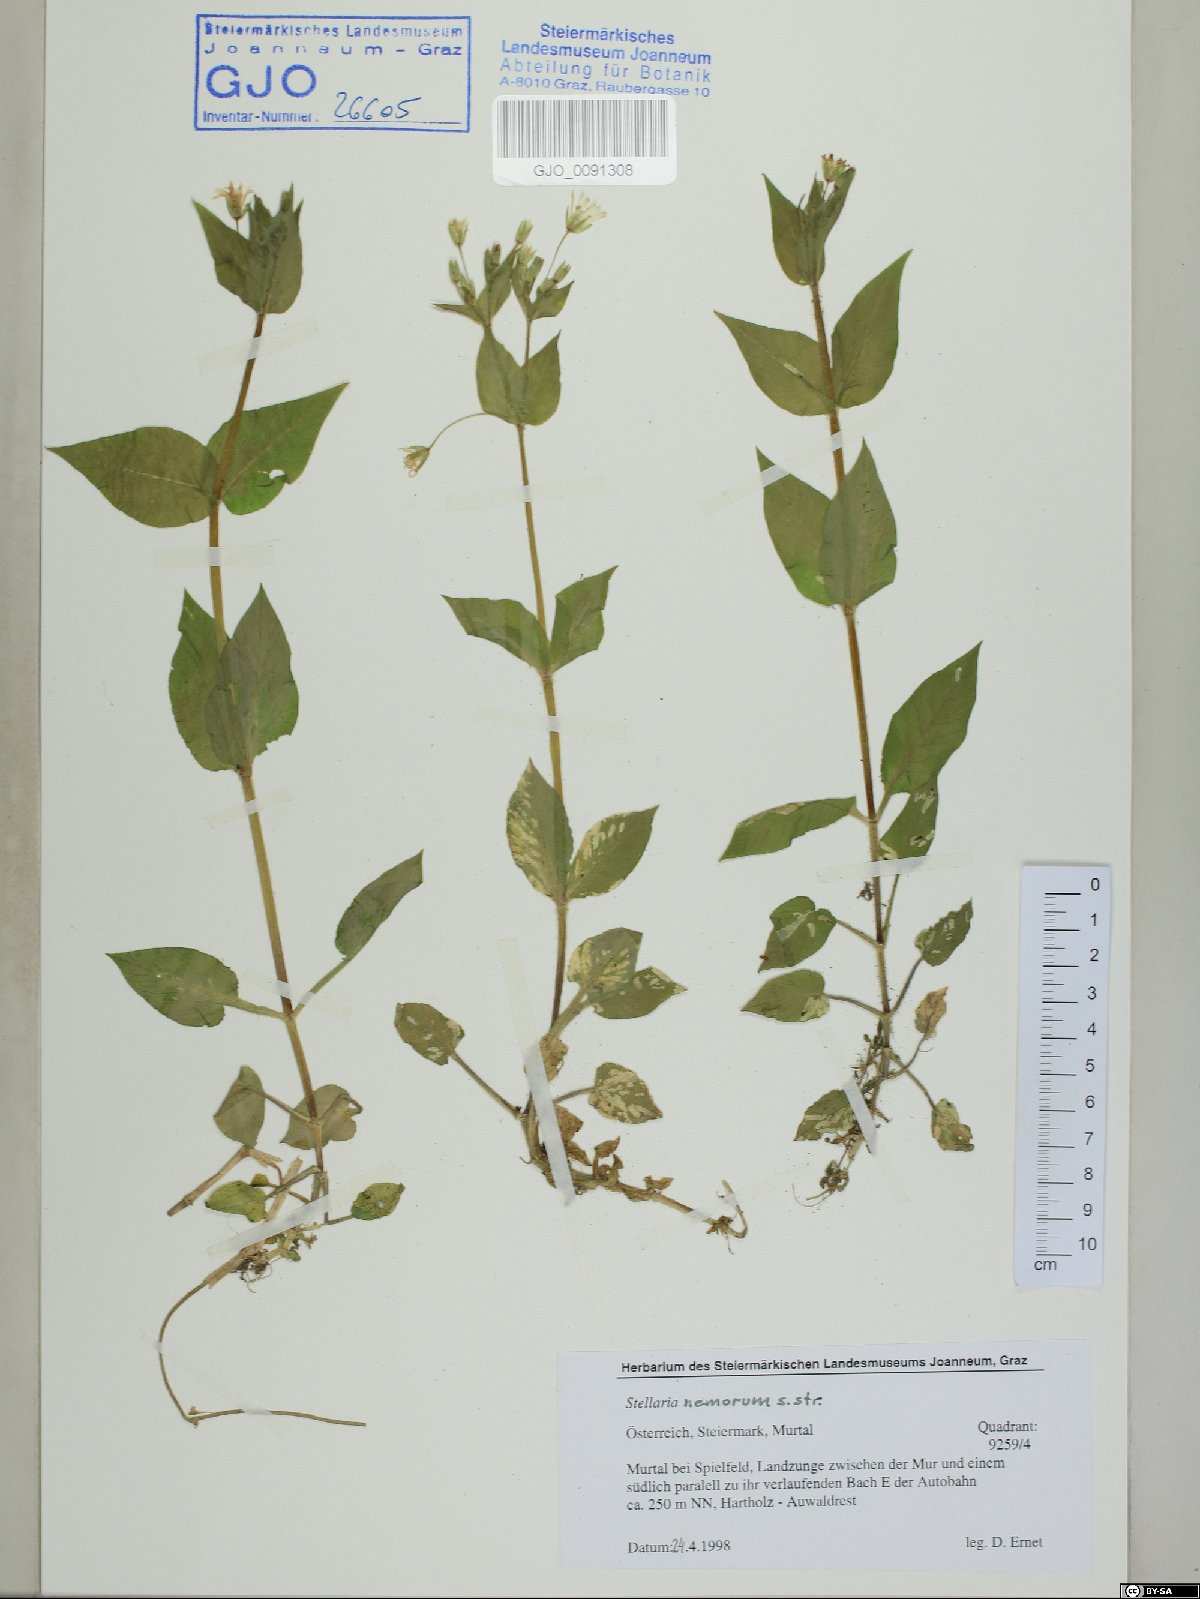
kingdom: Plantae
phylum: Tracheophyta
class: Magnoliopsida
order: Caryophyllales
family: Caryophyllaceae
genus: Stellaria
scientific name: Stellaria nemorum
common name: Wood stitchwort
